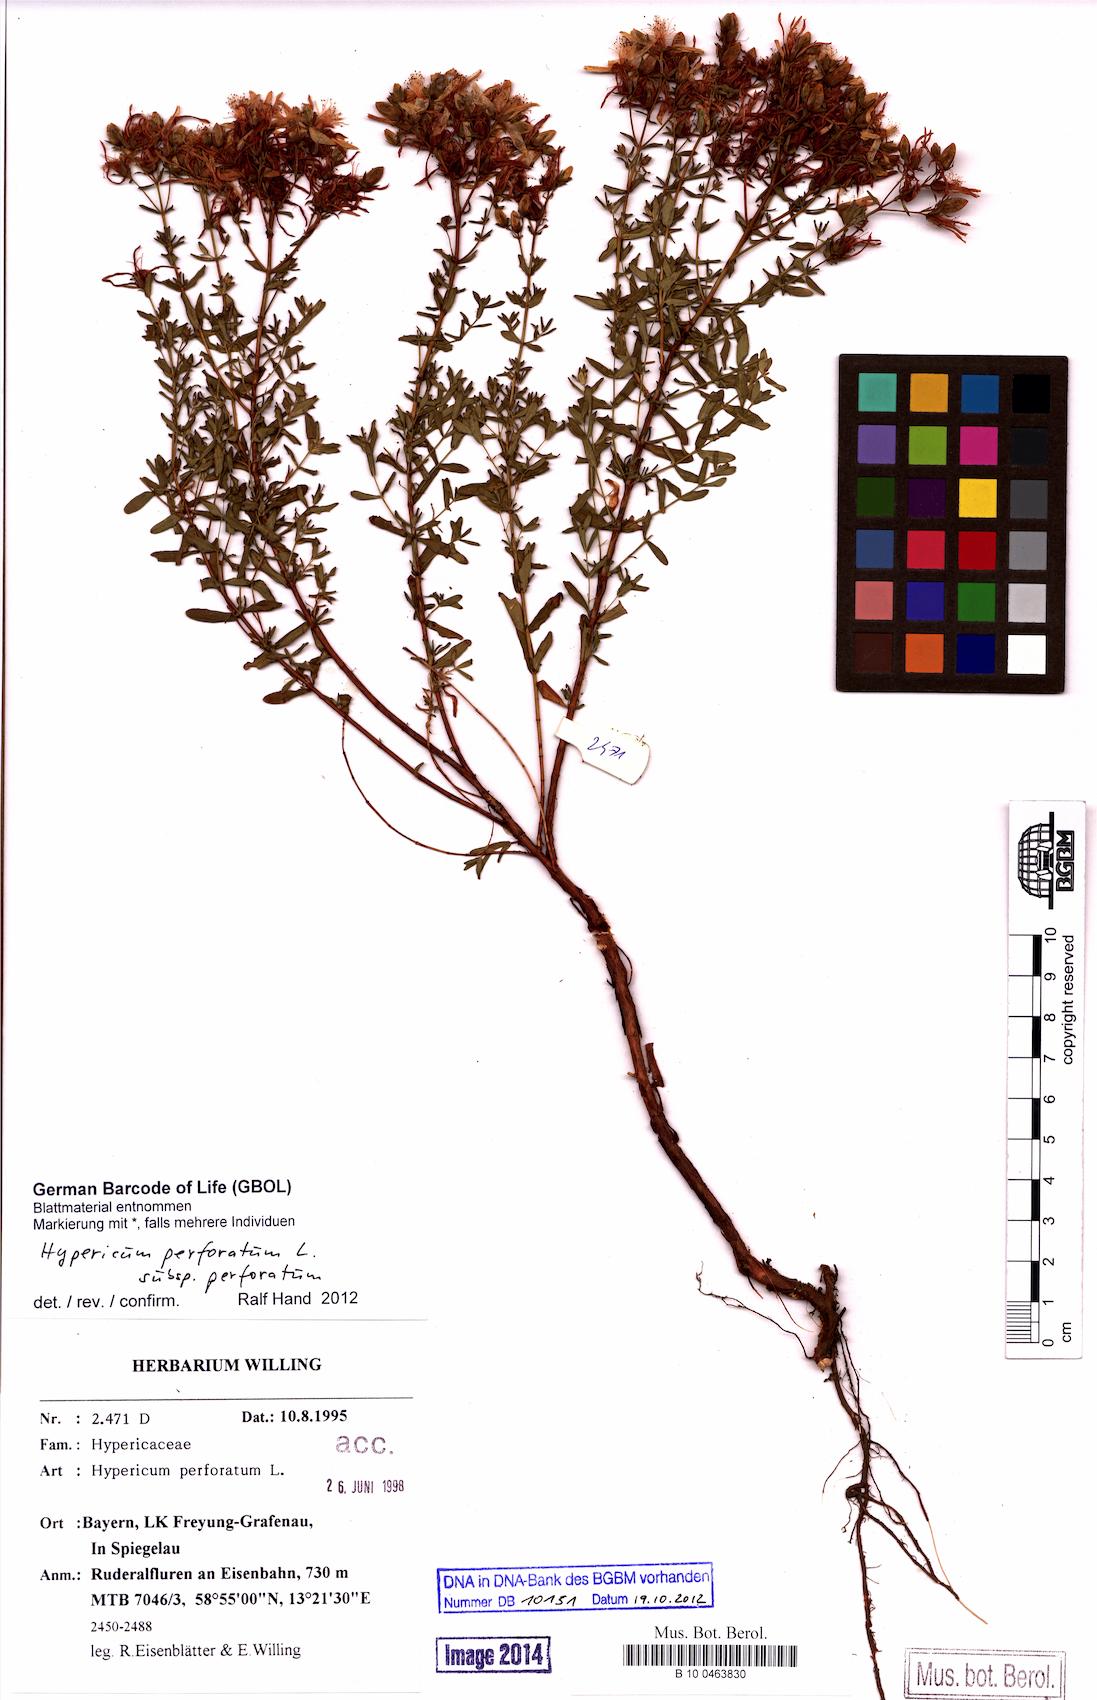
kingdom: Plantae
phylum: Tracheophyta
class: Magnoliopsida
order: Malpighiales
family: Hypericaceae
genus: Hypericum
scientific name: Hypericum perforatum
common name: Common st. johnswort
